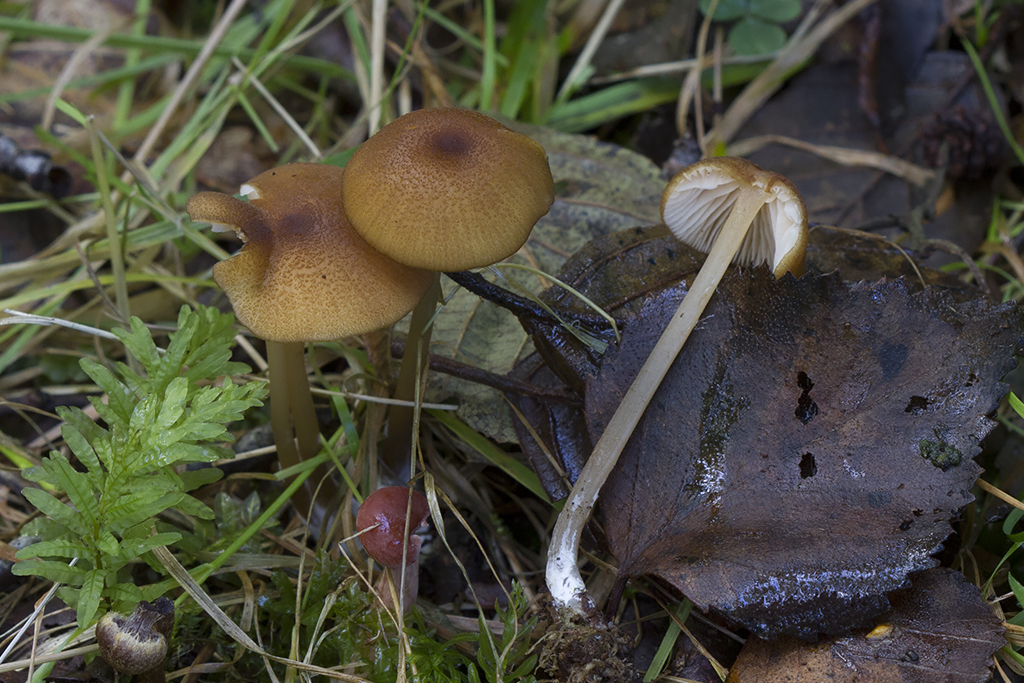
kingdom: Fungi
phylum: Basidiomycota
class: Agaricomycetes
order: Agaricales
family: Entolomataceae
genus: Entoloma
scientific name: Entoloma formosum
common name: brungul rødblad
